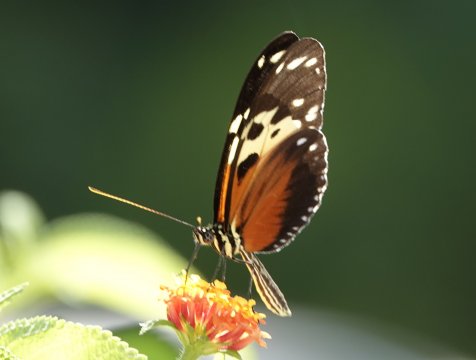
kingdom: Animalia
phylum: Arthropoda
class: Insecta
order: Lepidoptera
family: Nymphalidae
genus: Heliconius
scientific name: Heliconius hecale
